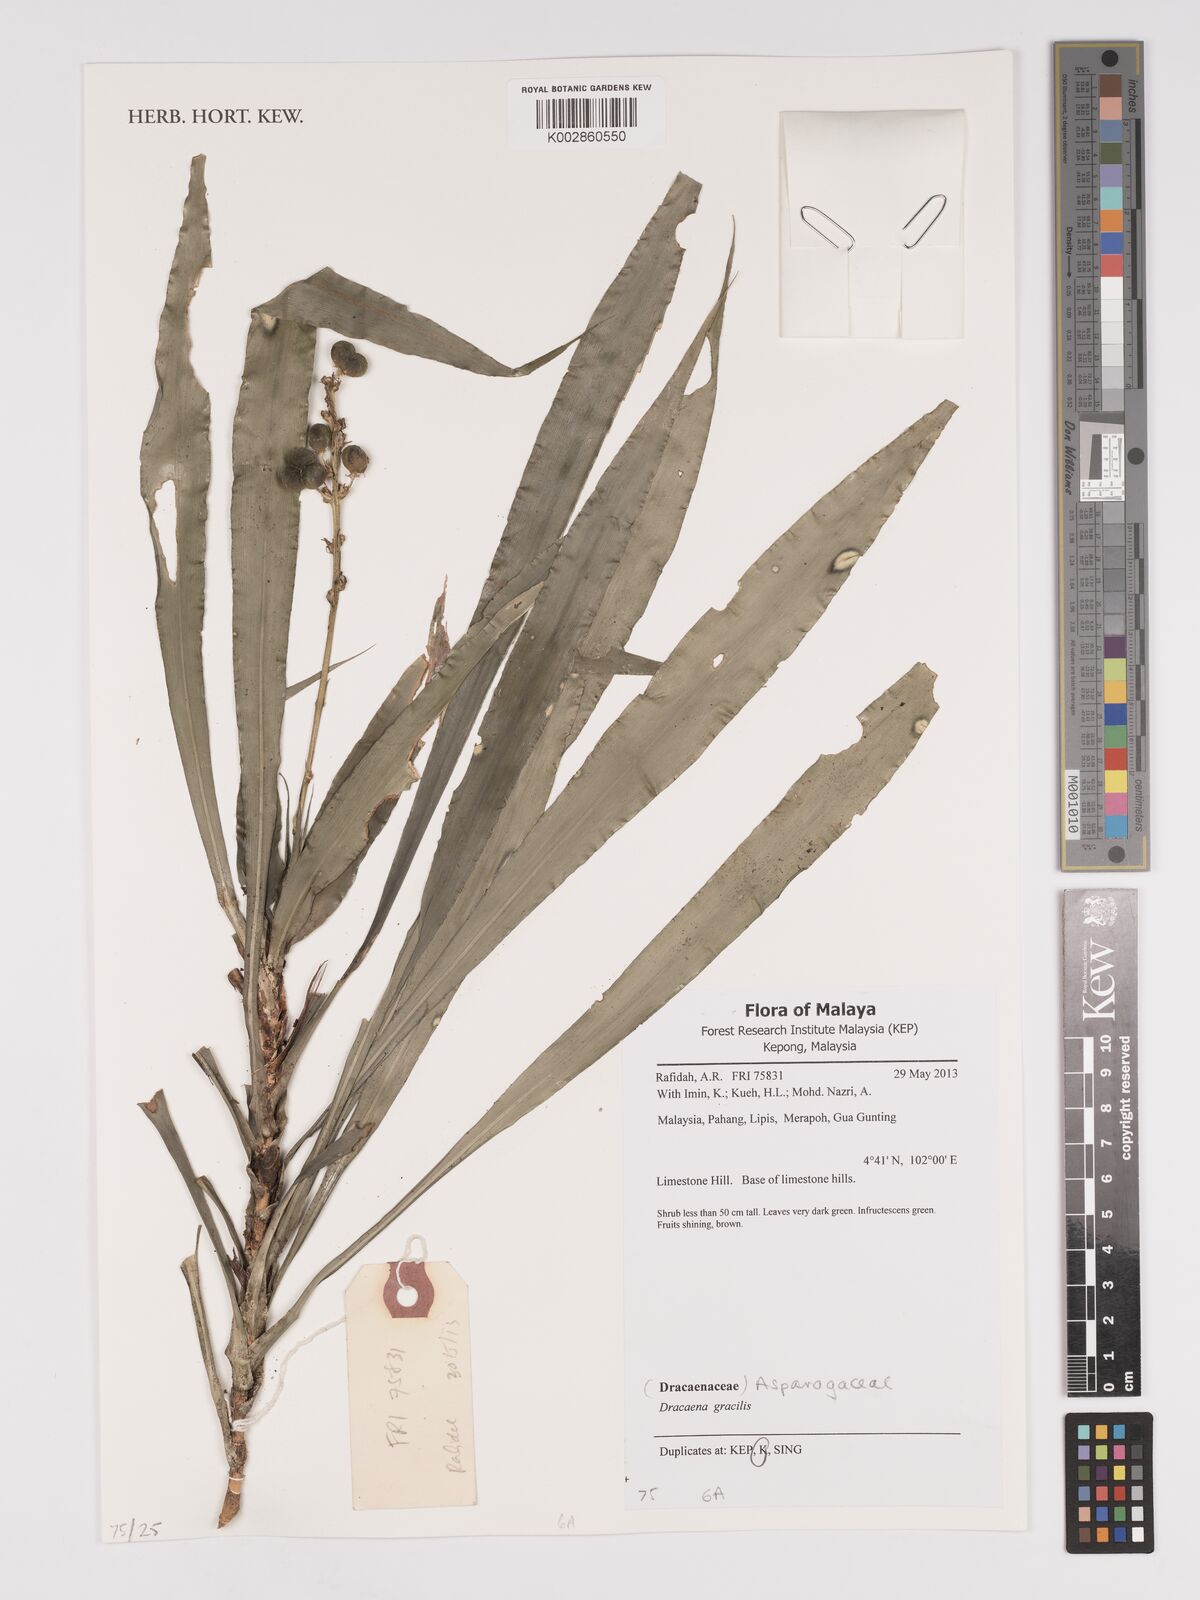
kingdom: Plantae
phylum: Tracheophyta
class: Liliopsida
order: Asparagales
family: Asparagaceae
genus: Dracaena
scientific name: Dracaena reflexa
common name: Song-of-india
